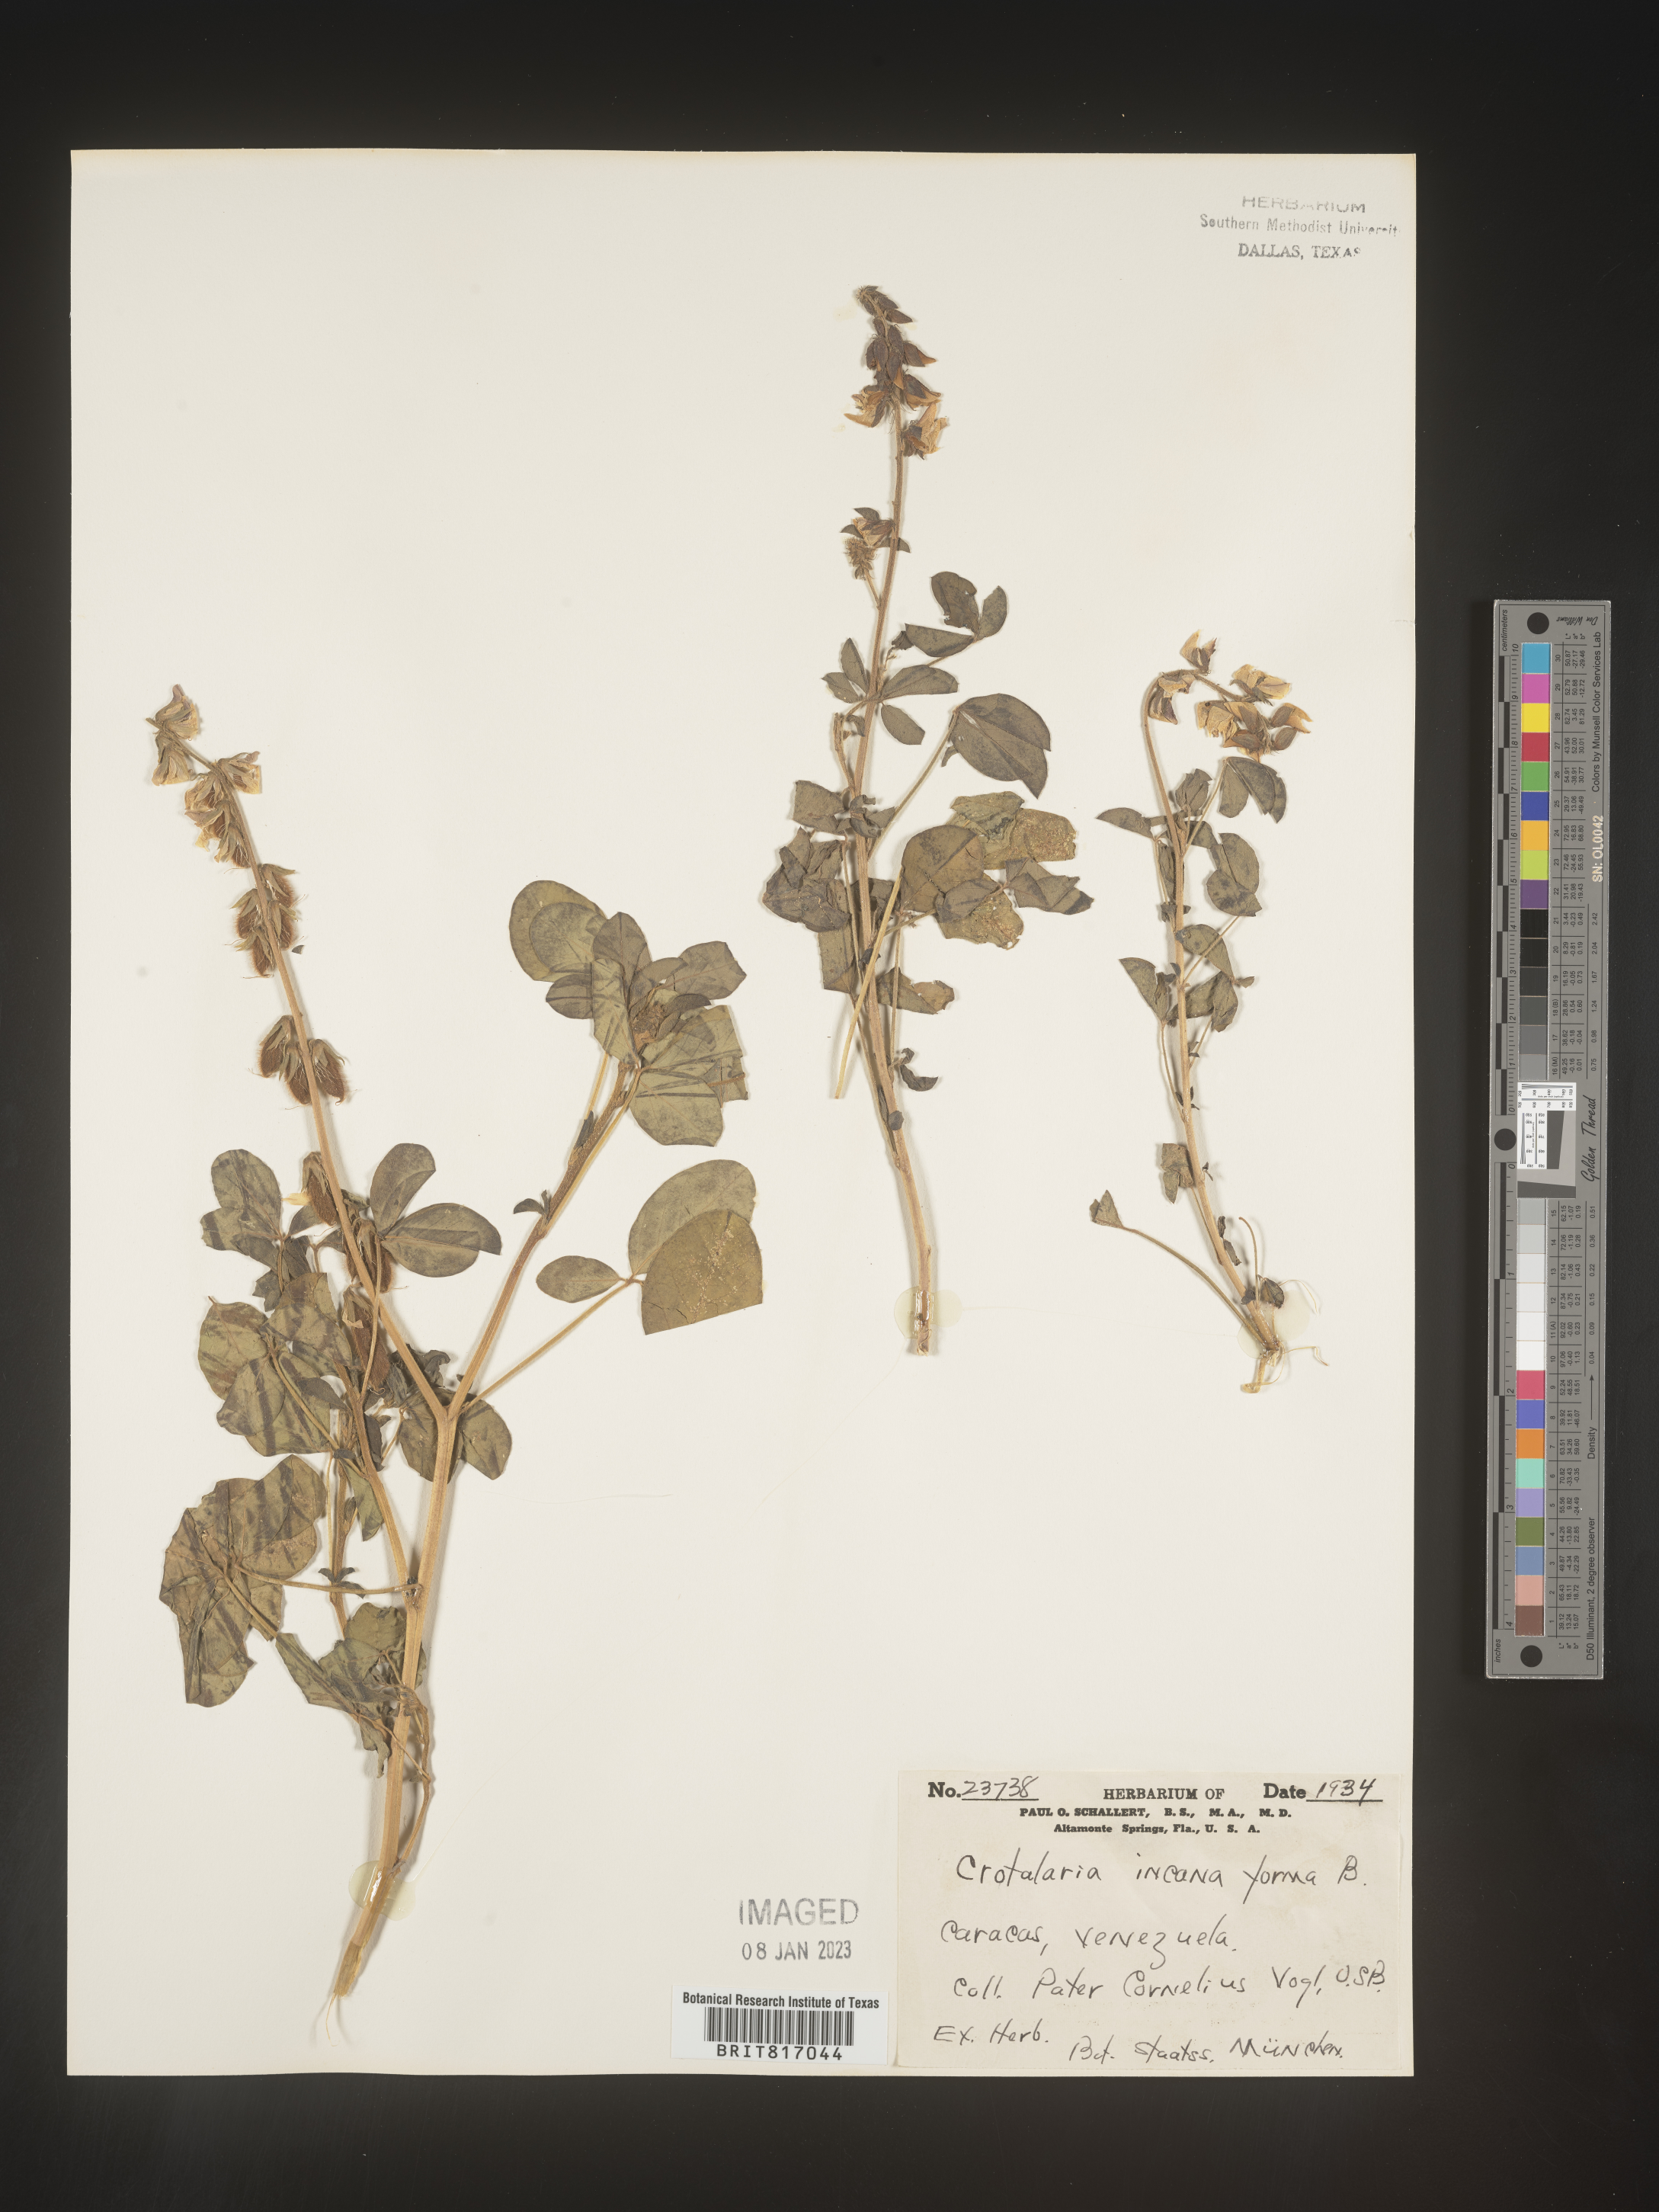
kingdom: Plantae
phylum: Tracheophyta
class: Magnoliopsida
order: Fabales
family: Fabaceae
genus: Crotalaria
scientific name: Crotalaria
